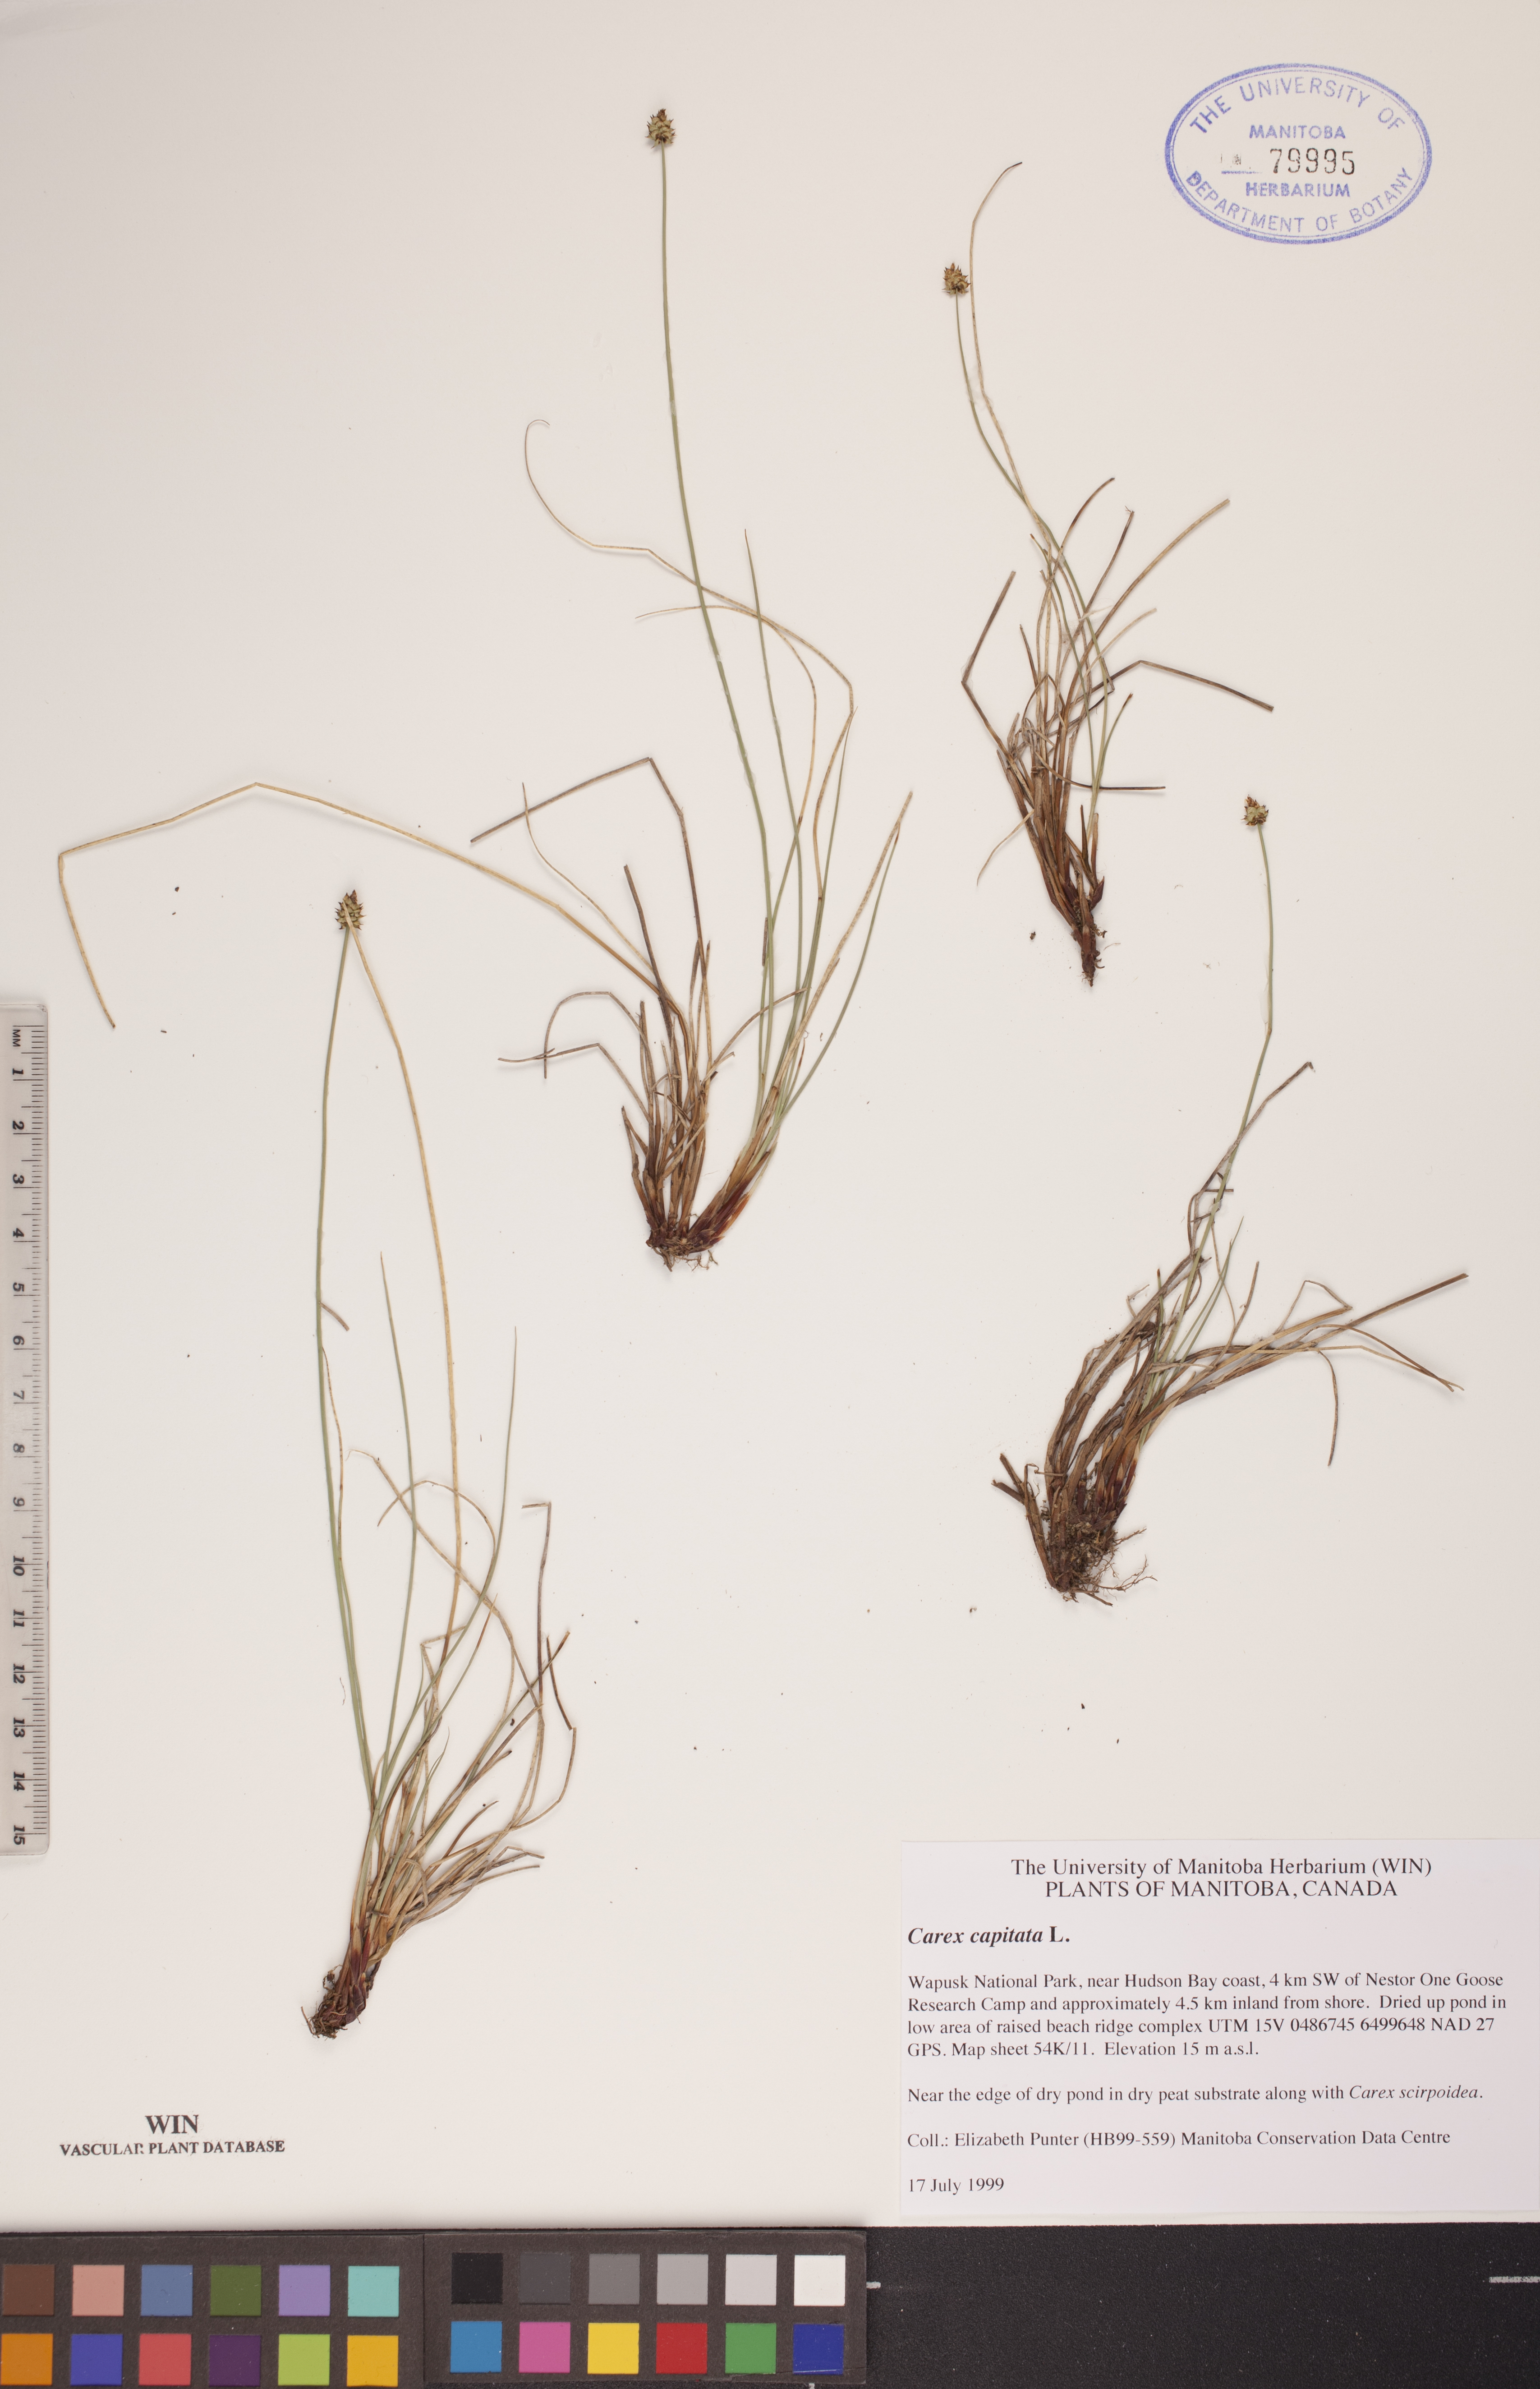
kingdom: Plantae
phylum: Tracheophyta
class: Liliopsida
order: Poales
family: Cyperaceae
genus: Carex
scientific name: Carex capitata
